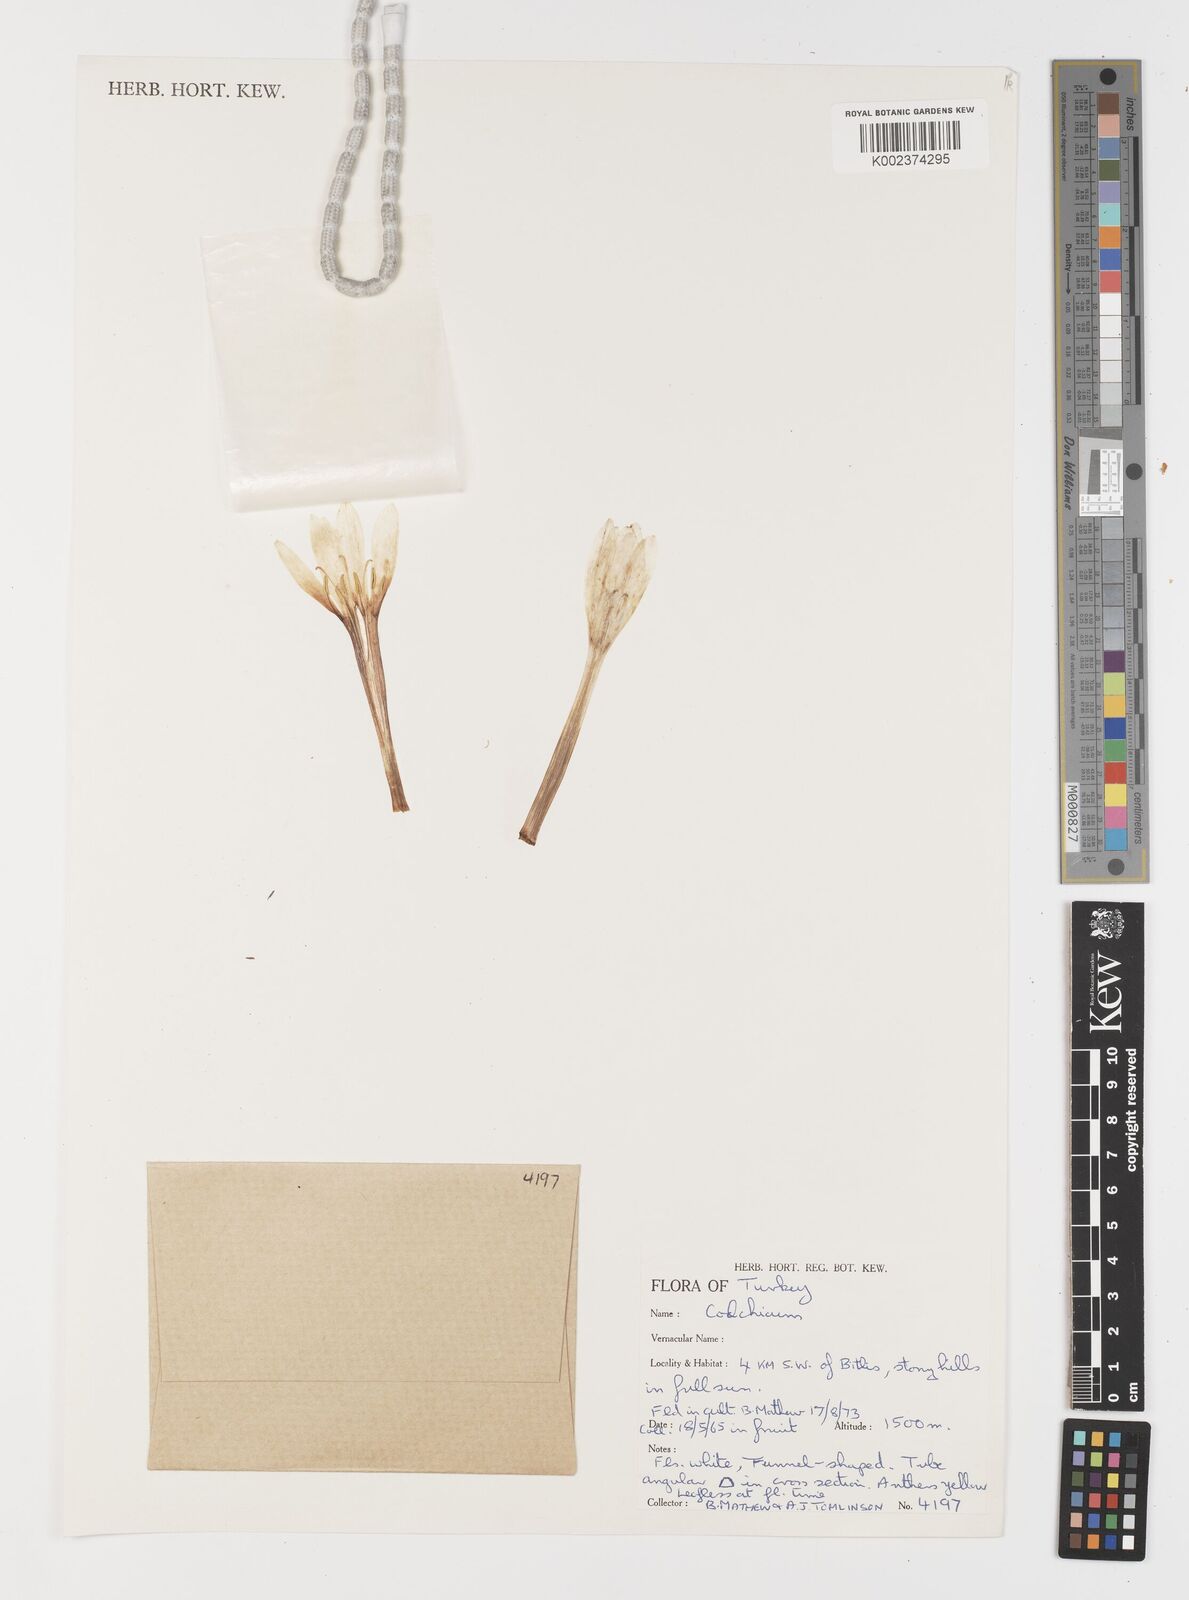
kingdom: Plantae
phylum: Tracheophyta
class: Liliopsida
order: Liliales
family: Colchicaceae
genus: Colchicum
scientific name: Colchicum
